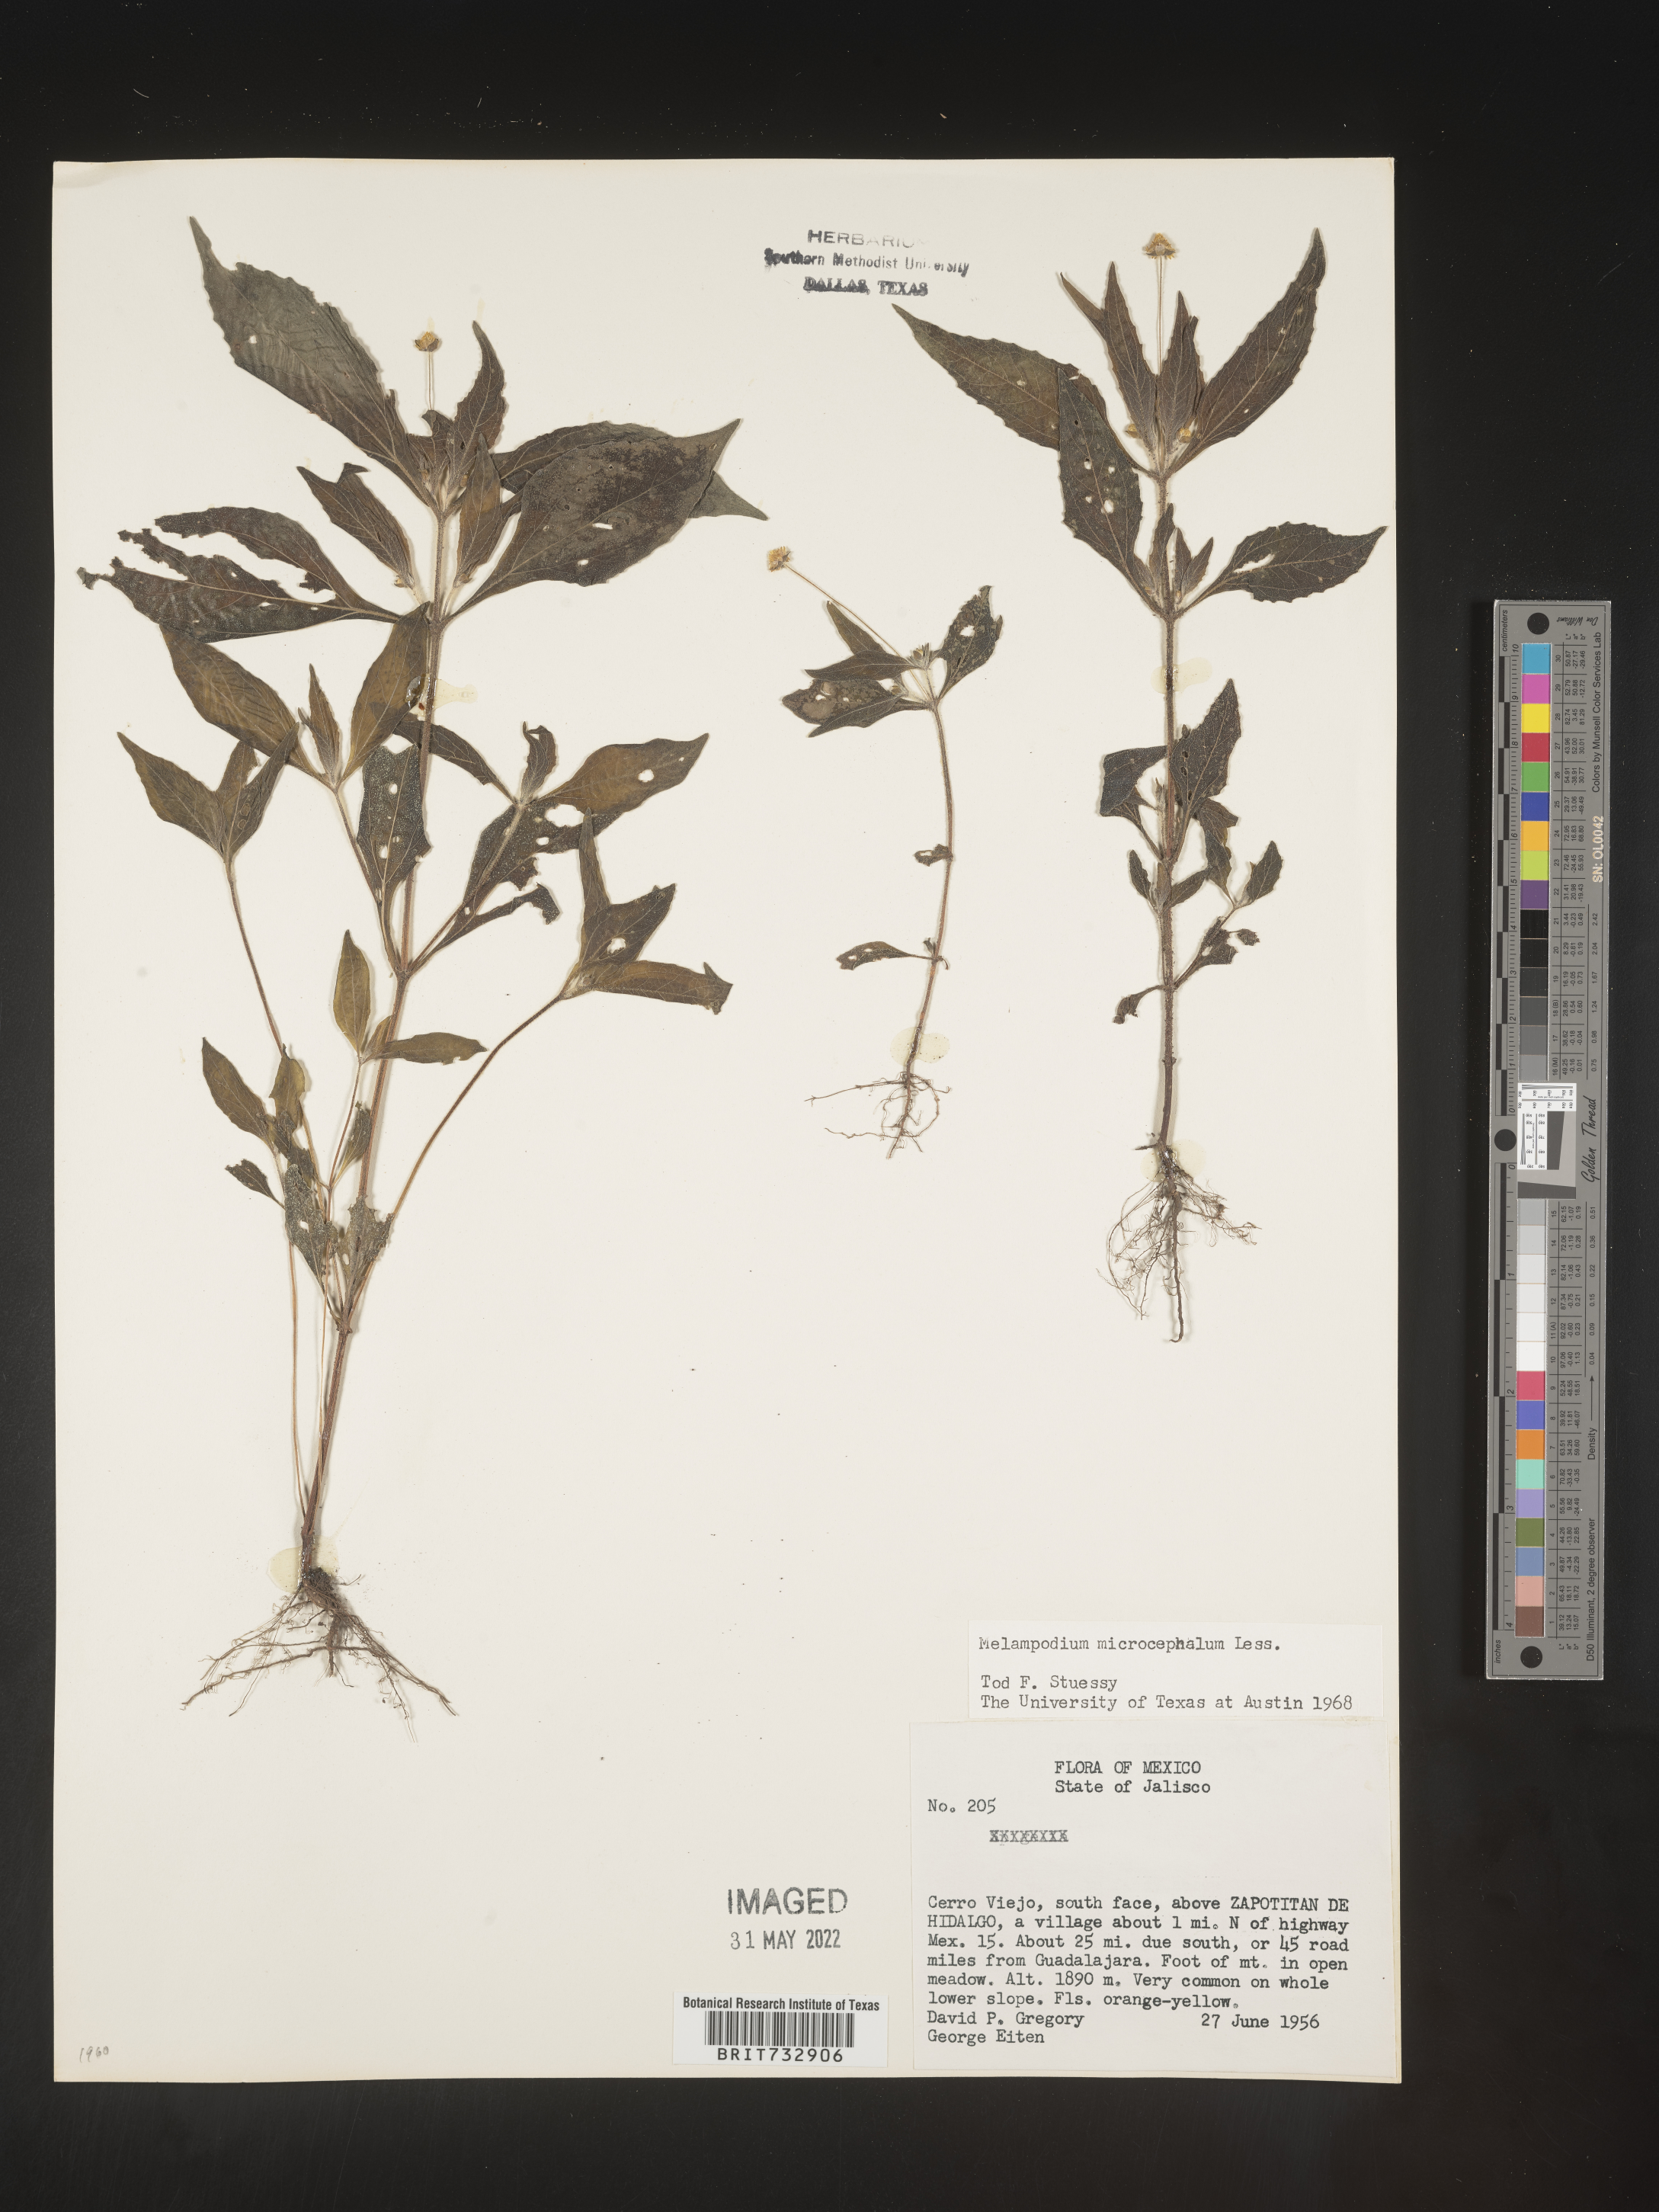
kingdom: Plantae
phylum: Tracheophyta
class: Magnoliopsida
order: Asterales
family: Asteraceae
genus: Melampodium
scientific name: Melampodium
